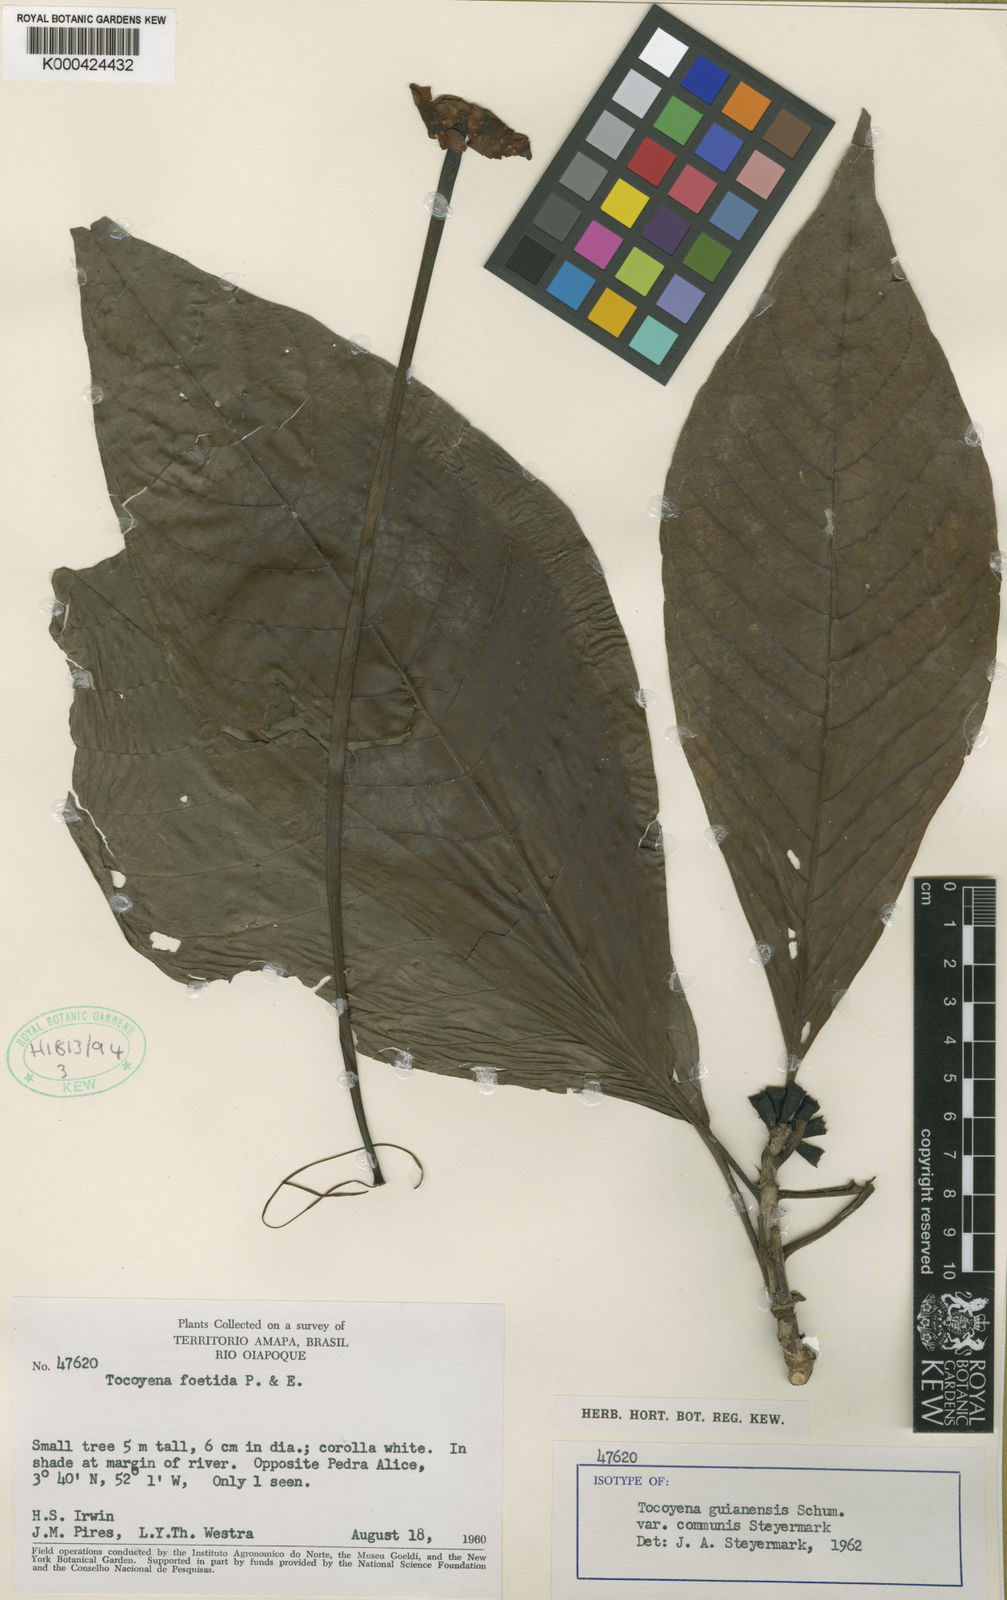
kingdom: Plantae
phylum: Tracheophyta
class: Magnoliopsida
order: Gentianales
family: Rubiaceae
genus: Tocoyena
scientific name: Tocoyena guianensis
